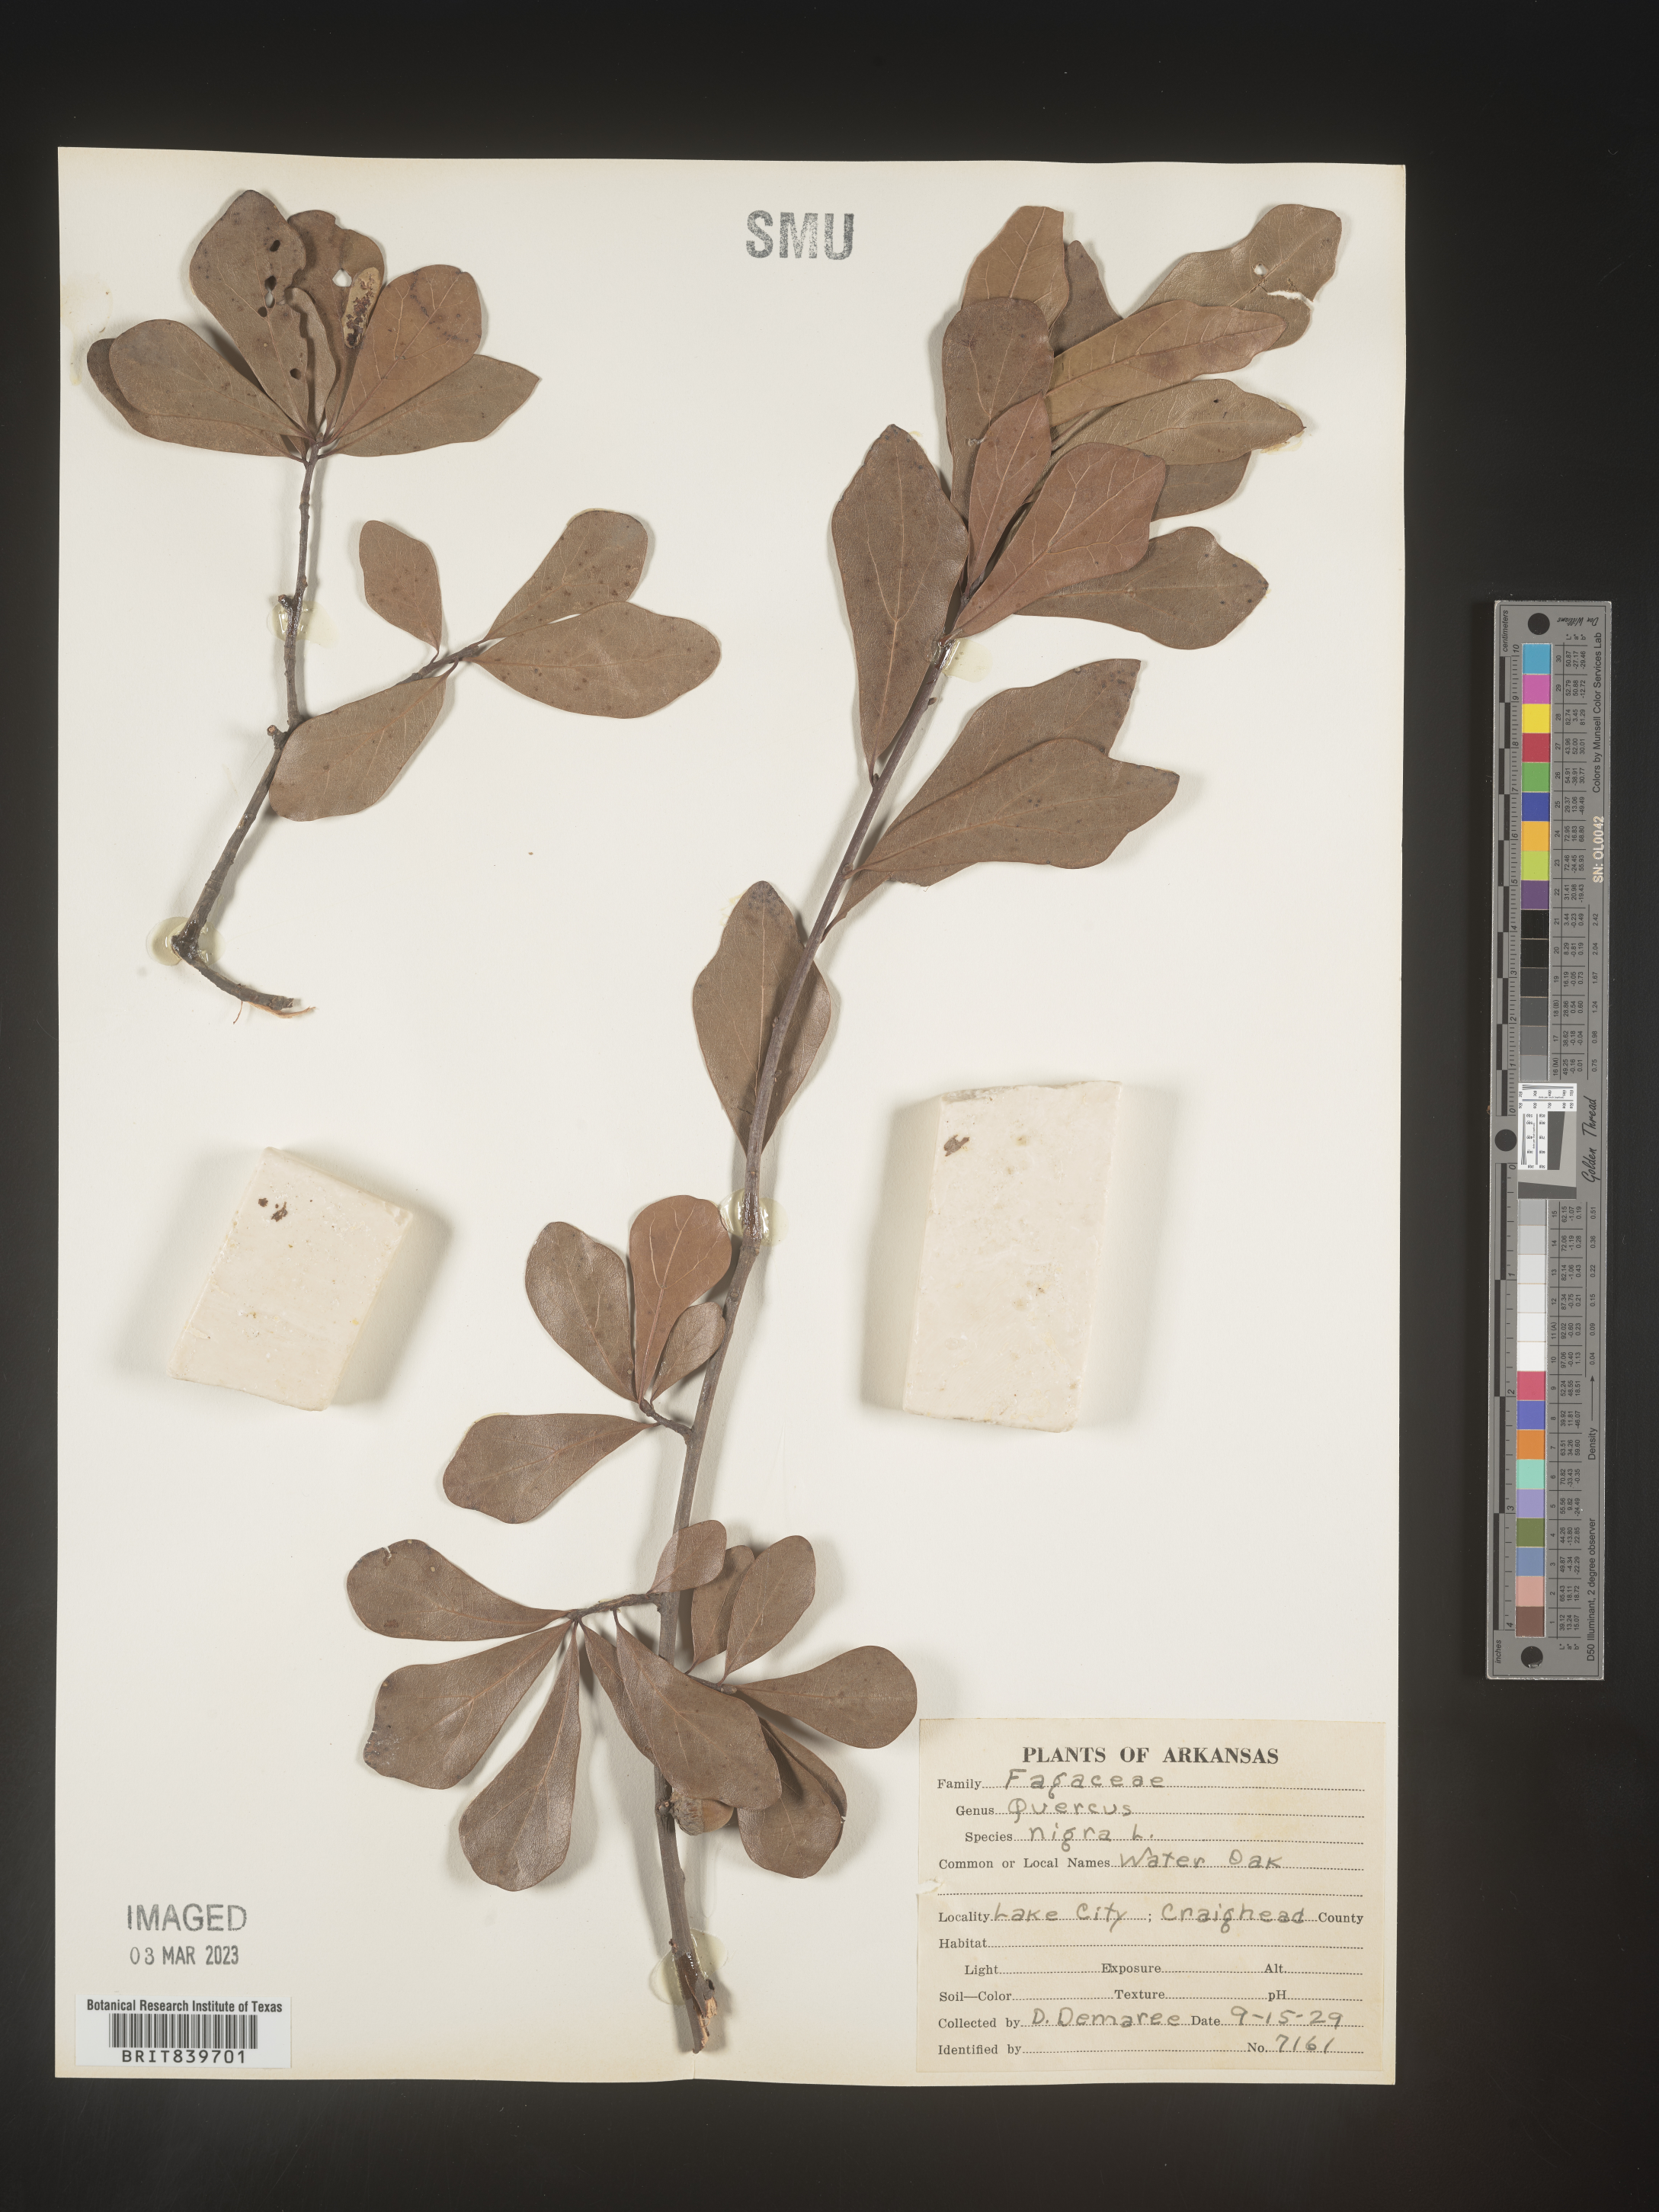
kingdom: Plantae
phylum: Tracheophyta
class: Magnoliopsida
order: Fagales
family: Fagaceae
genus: Quercus
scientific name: Quercus nigra
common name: Water oak
